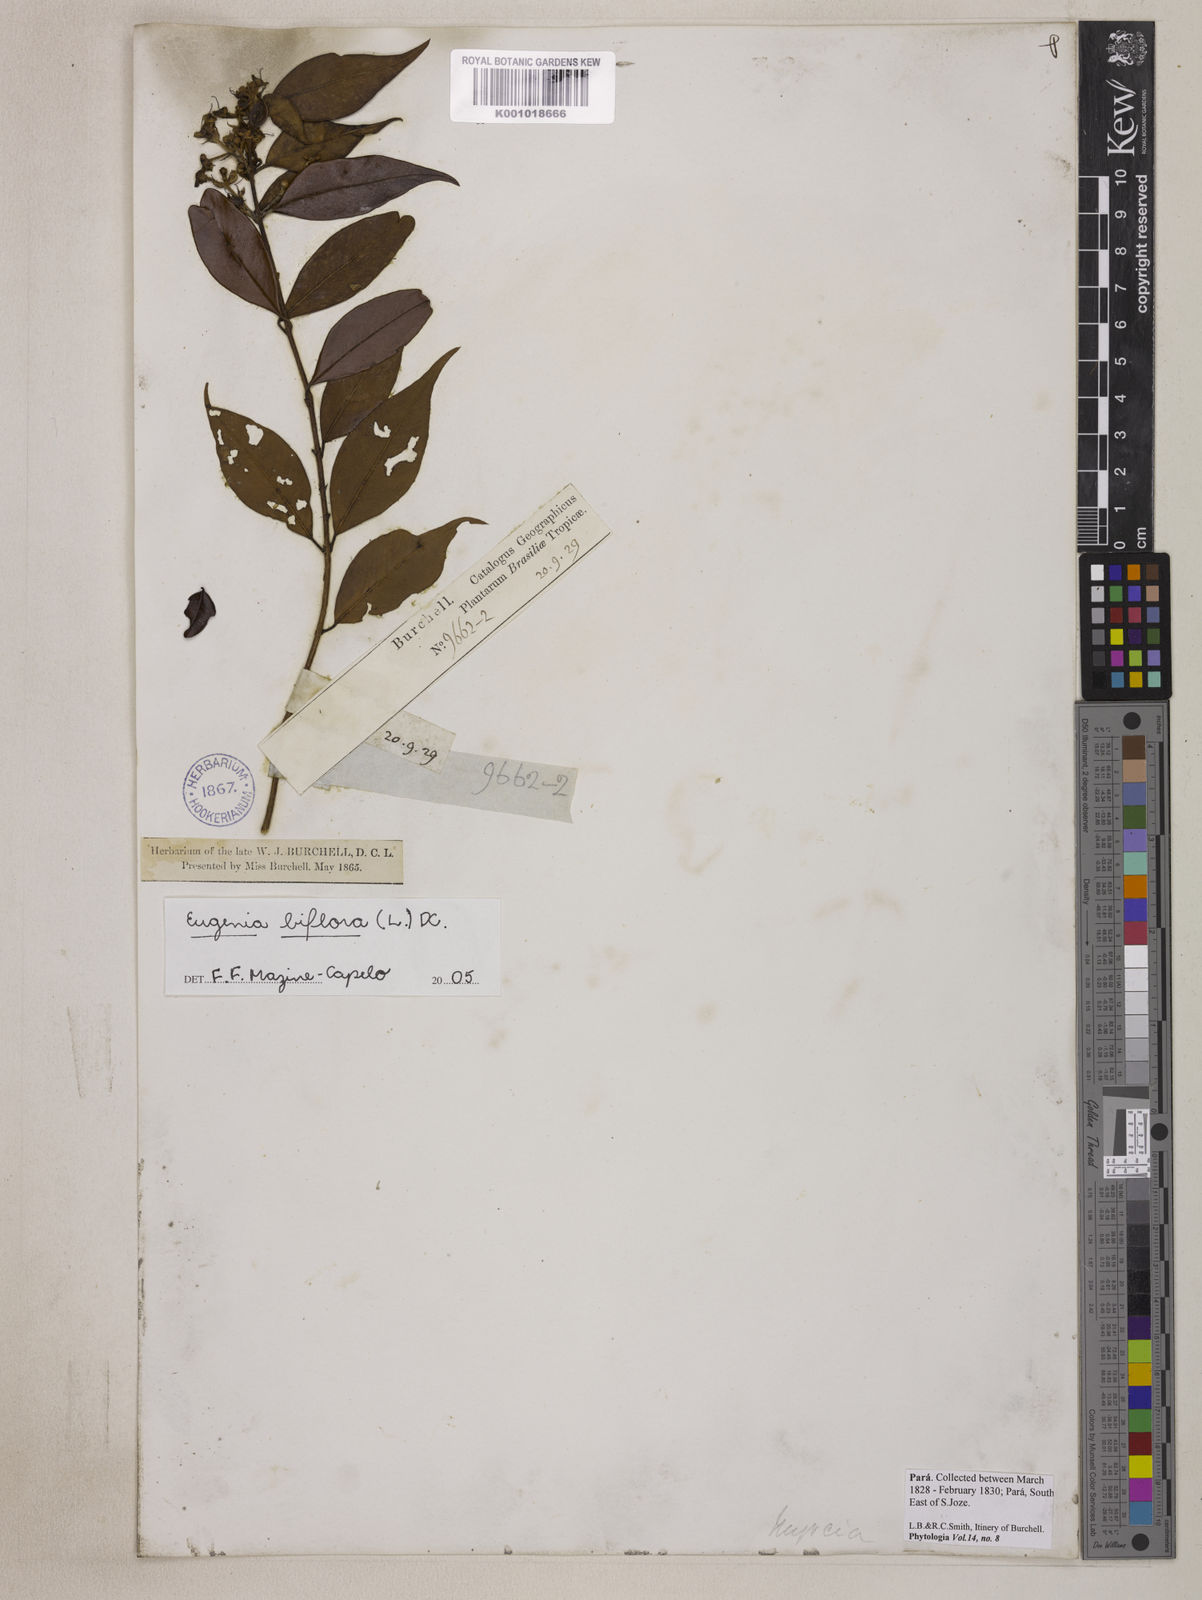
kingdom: Plantae
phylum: Tracheophyta
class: Magnoliopsida
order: Myrtales
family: Myrtaceae
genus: Eugenia
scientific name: Eugenia biflora
